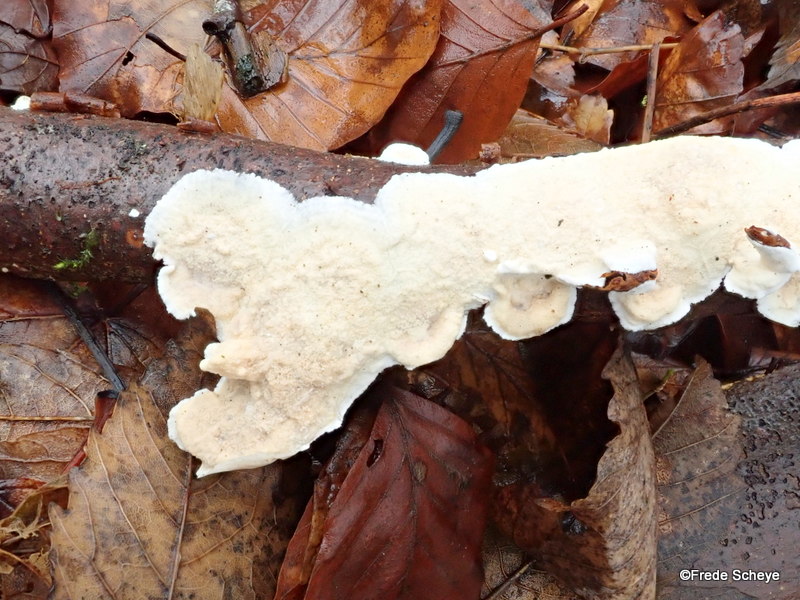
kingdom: Fungi
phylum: Basidiomycota
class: Agaricomycetes
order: Polyporales
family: Irpicaceae
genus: Byssomerulius
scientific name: Byssomerulius corium
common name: læder-åresvamp
